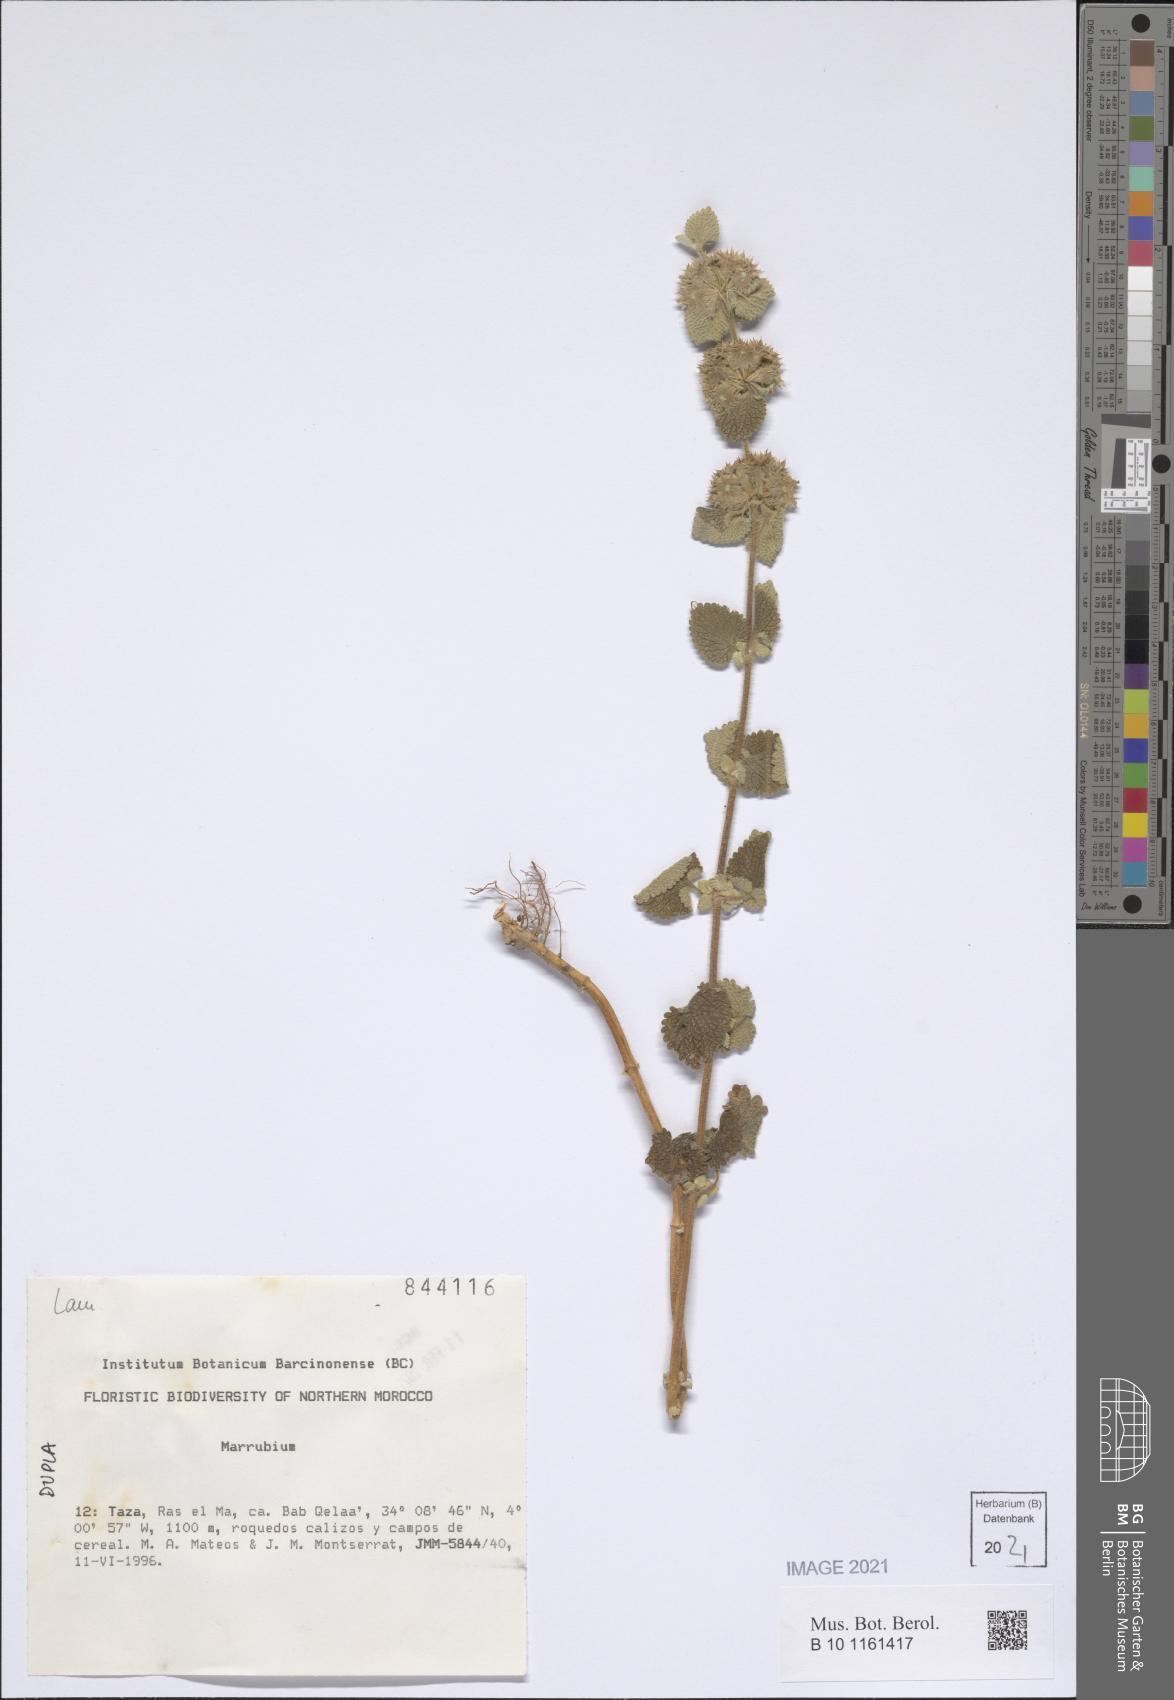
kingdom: Plantae
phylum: Tracheophyta
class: Magnoliopsida
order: Lamiales
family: Lamiaceae
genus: Marrubium
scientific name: Marrubium
